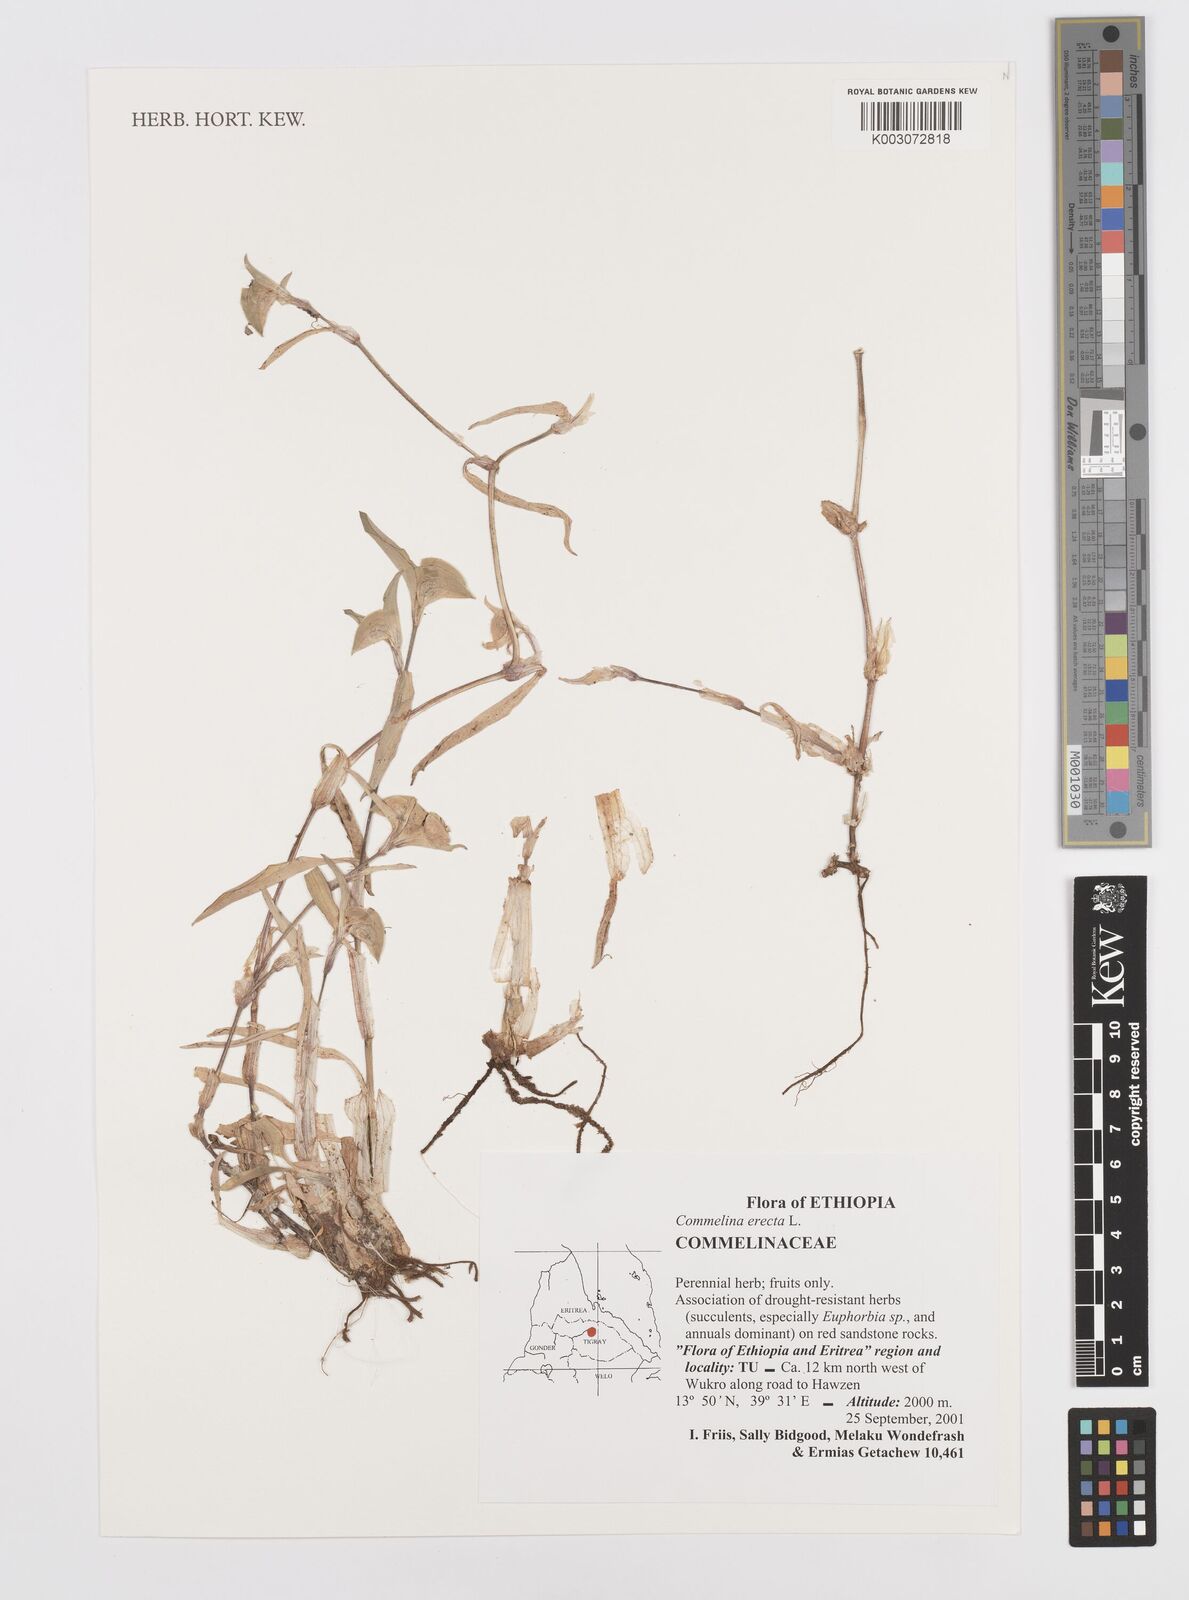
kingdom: Plantae
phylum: Tracheophyta
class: Liliopsida
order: Commelinales
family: Commelinaceae
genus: Commelina
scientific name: Commelina erecta
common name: Blousel blommetjie
